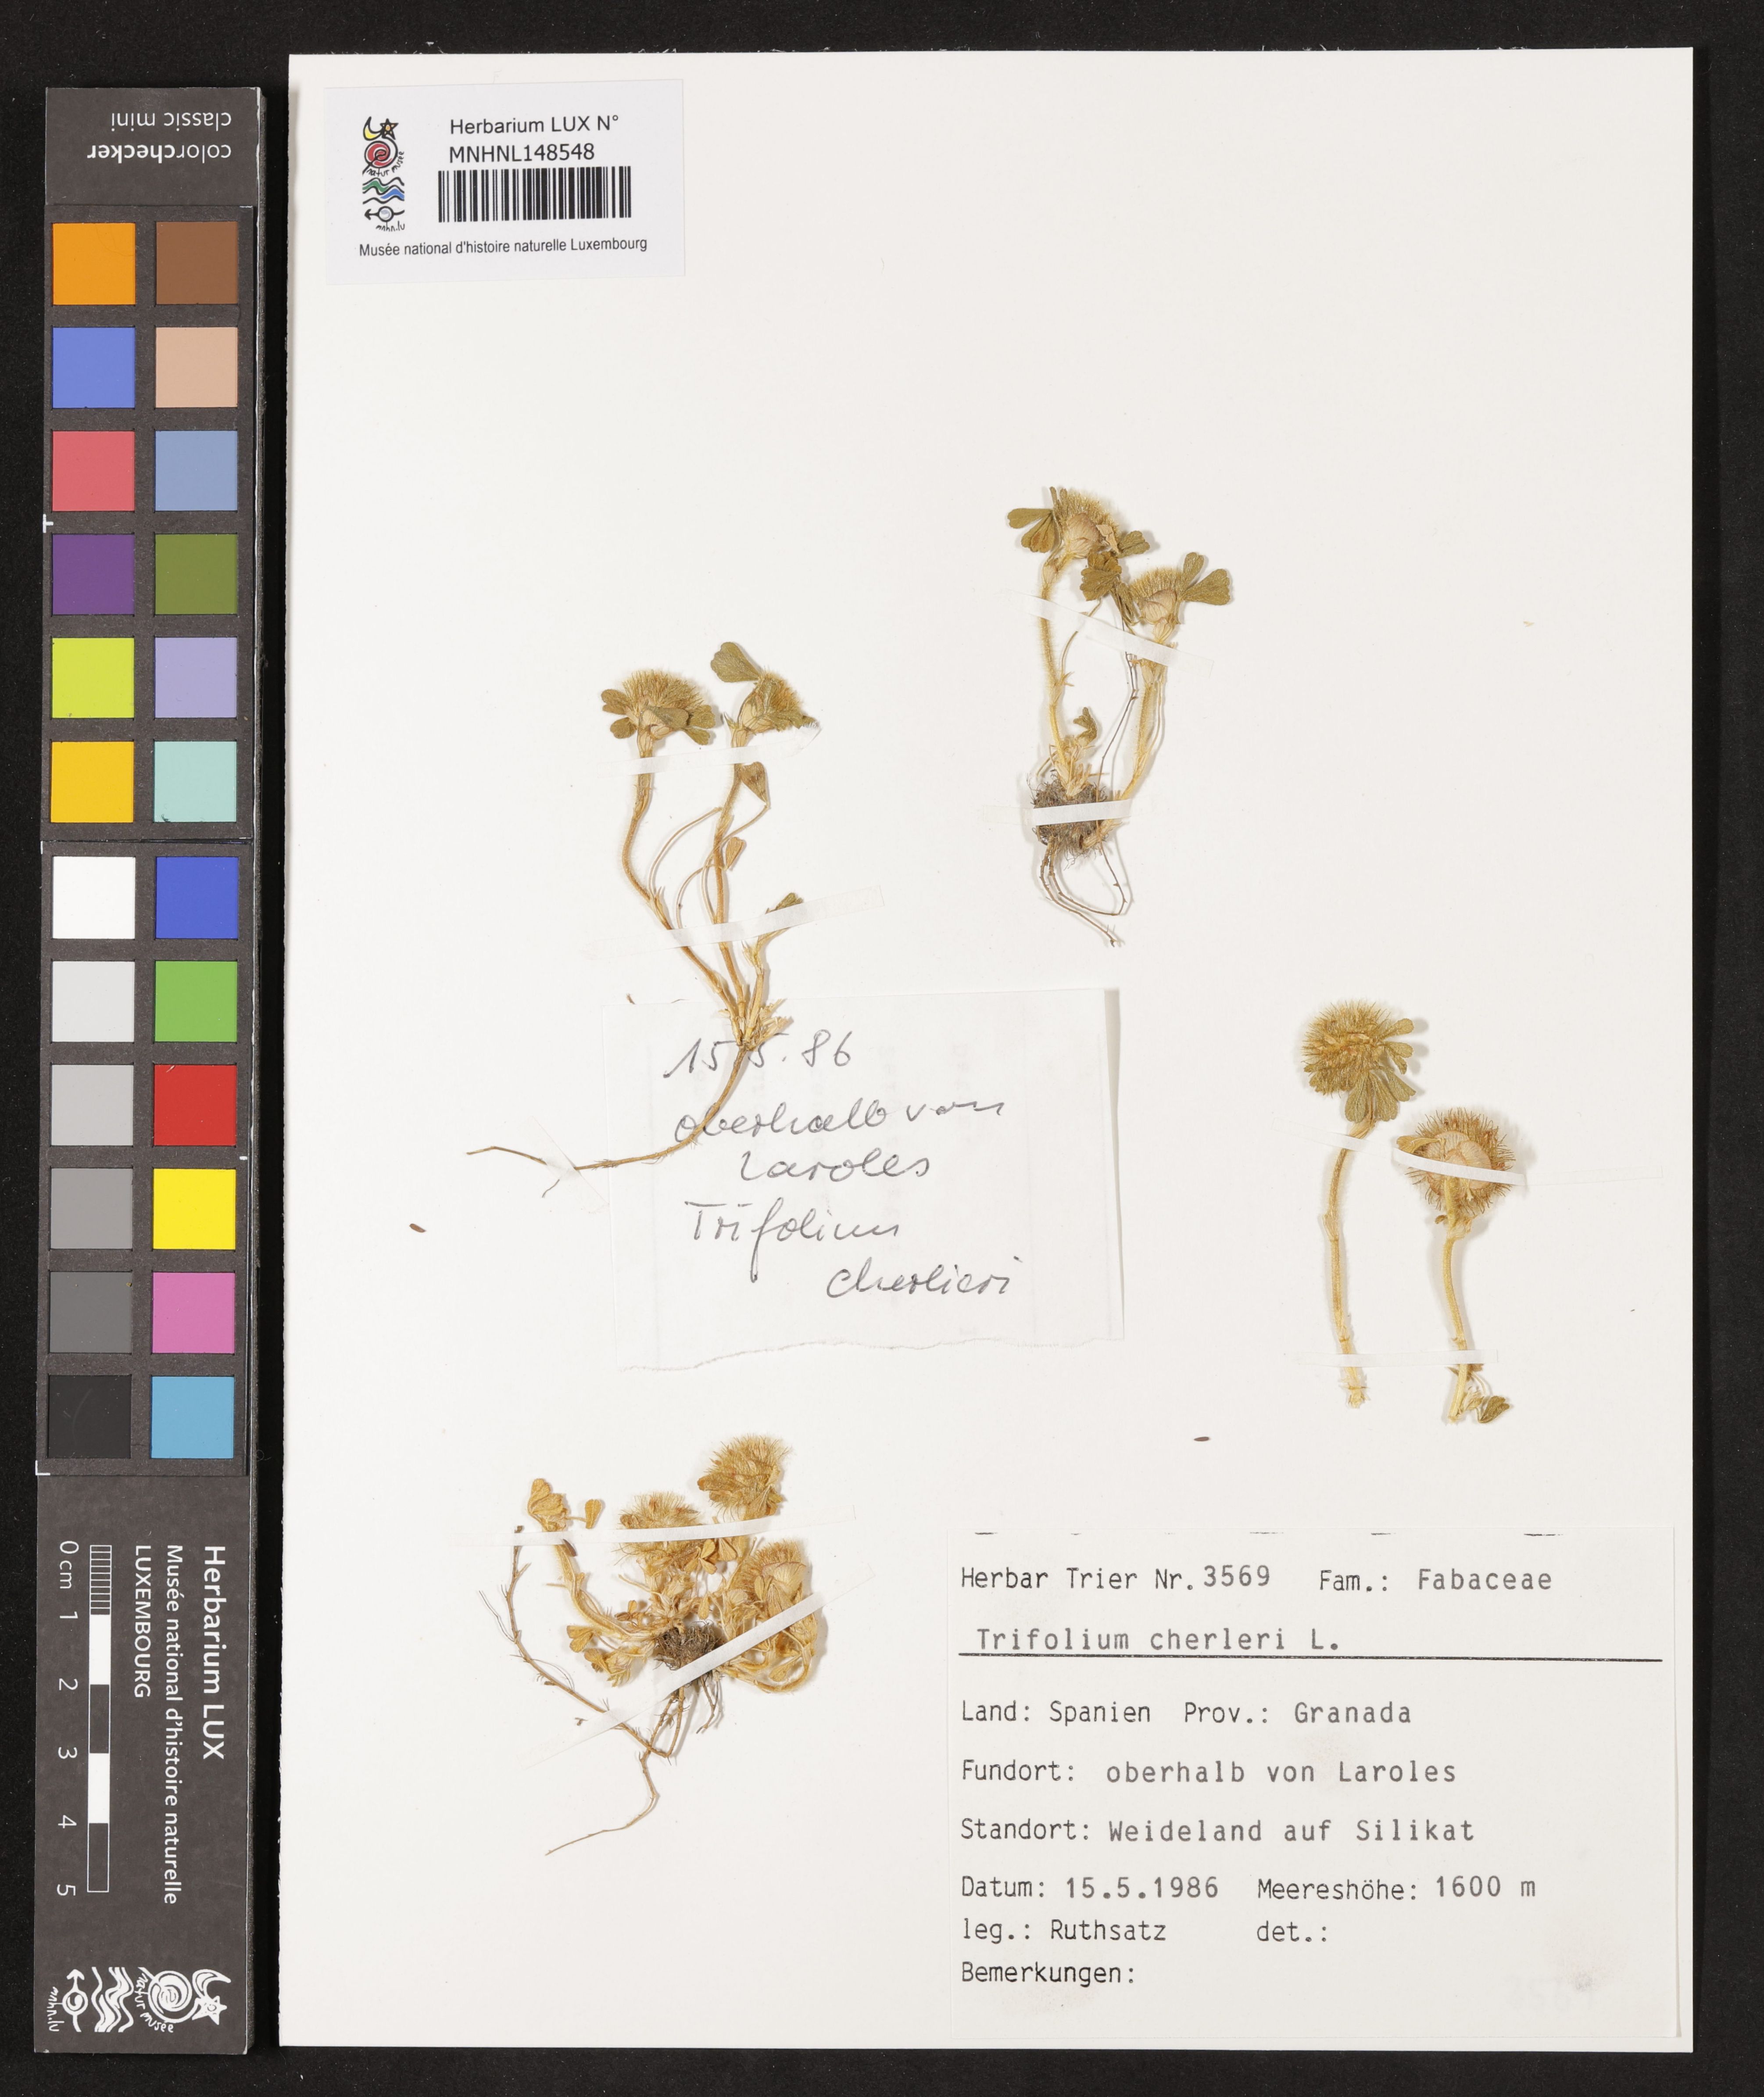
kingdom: Plantae
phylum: Tracheophyta
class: Magnoliopsida
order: Fabales
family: Fabaceae
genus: Trifolium
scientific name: Trifolium cherleri
